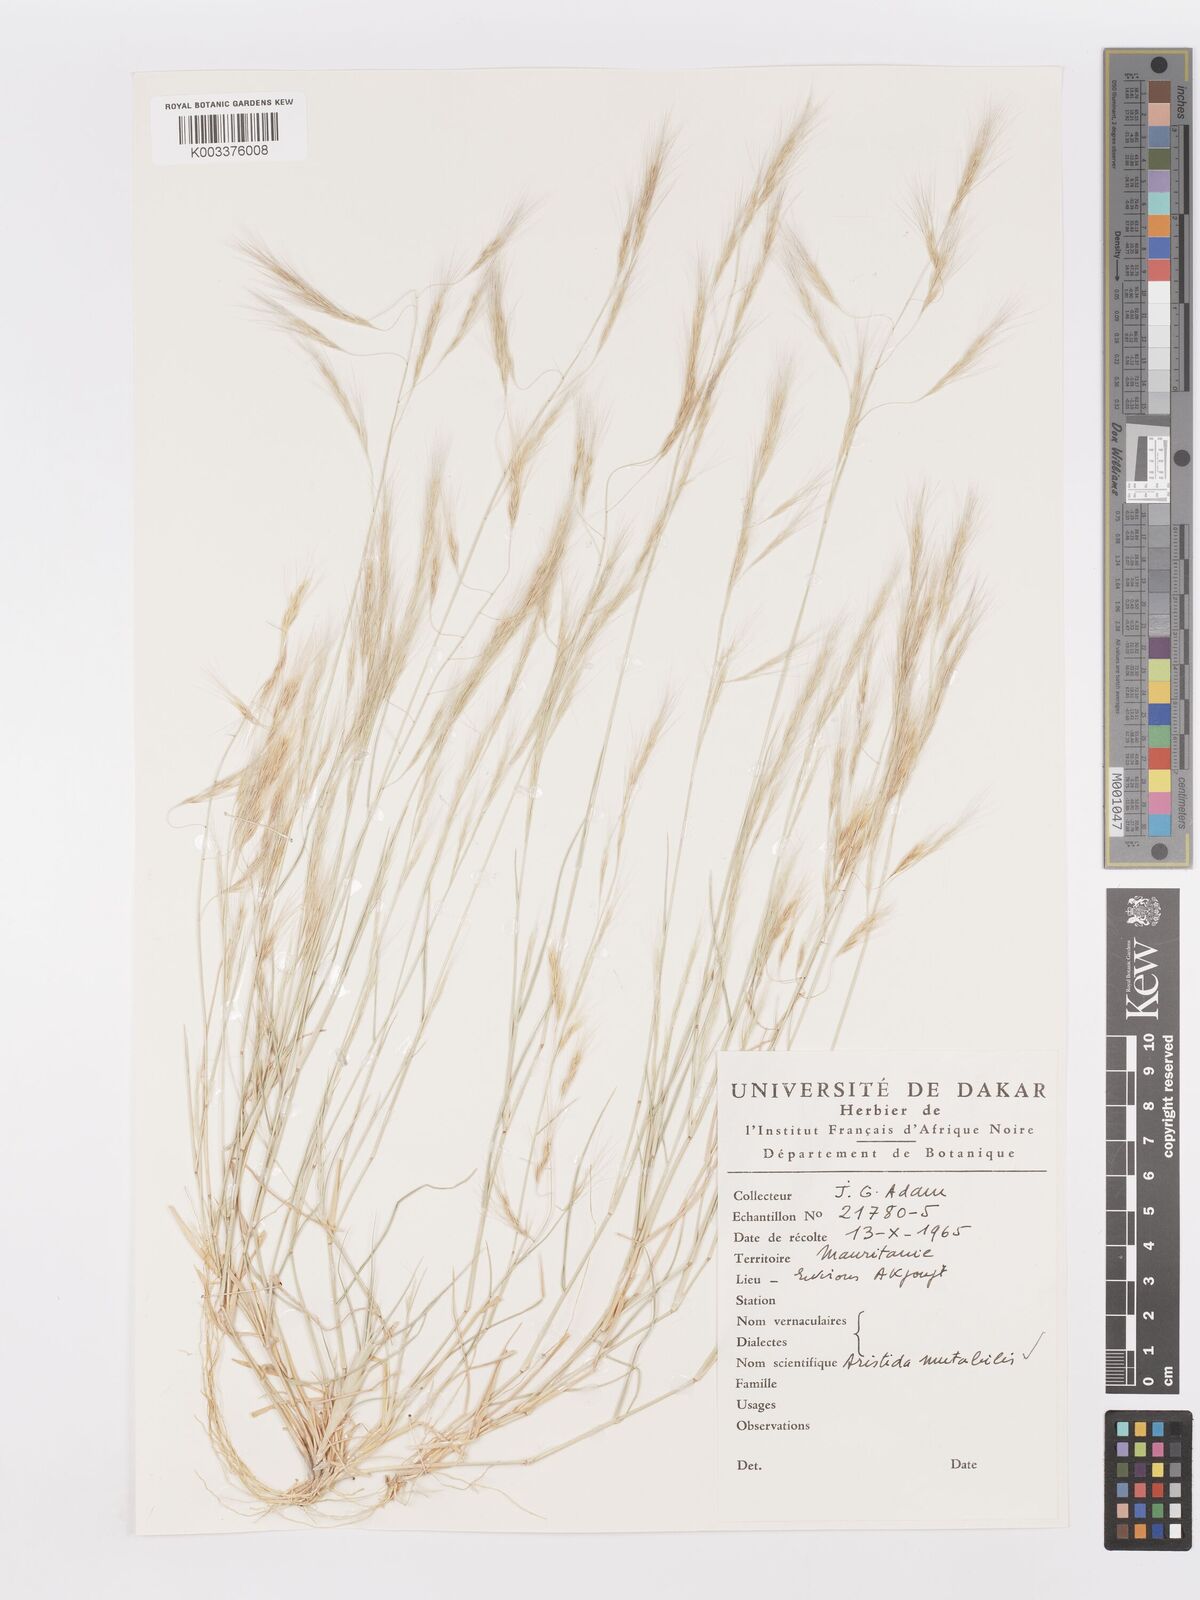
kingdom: Plantae
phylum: Tracheophyta
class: Liliopsida
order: Poales
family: Poaceae
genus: Aristida
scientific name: Aristida mutabilis
